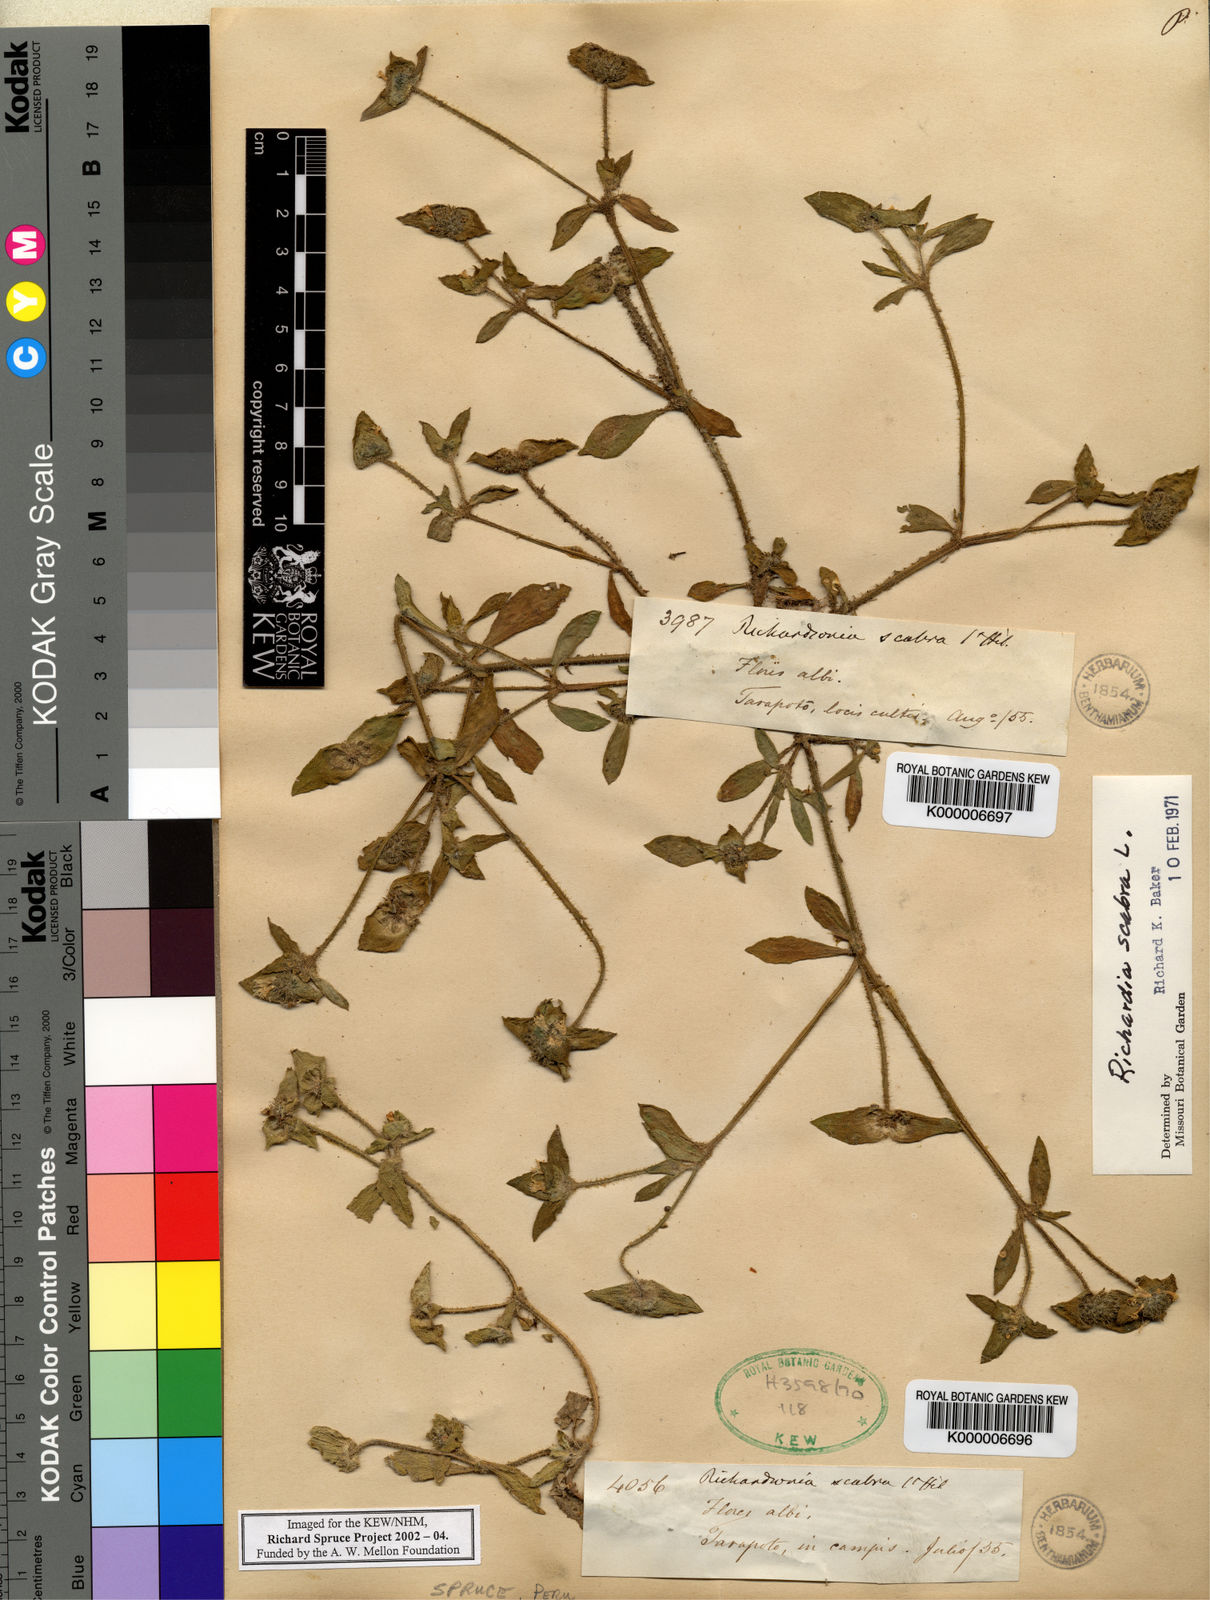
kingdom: Plantae
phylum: Tracheophyta
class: Magnoliopsida
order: Gentianales
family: Rubiaceae
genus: Richardia
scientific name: Richardia scabra
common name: Rough mexican clover
